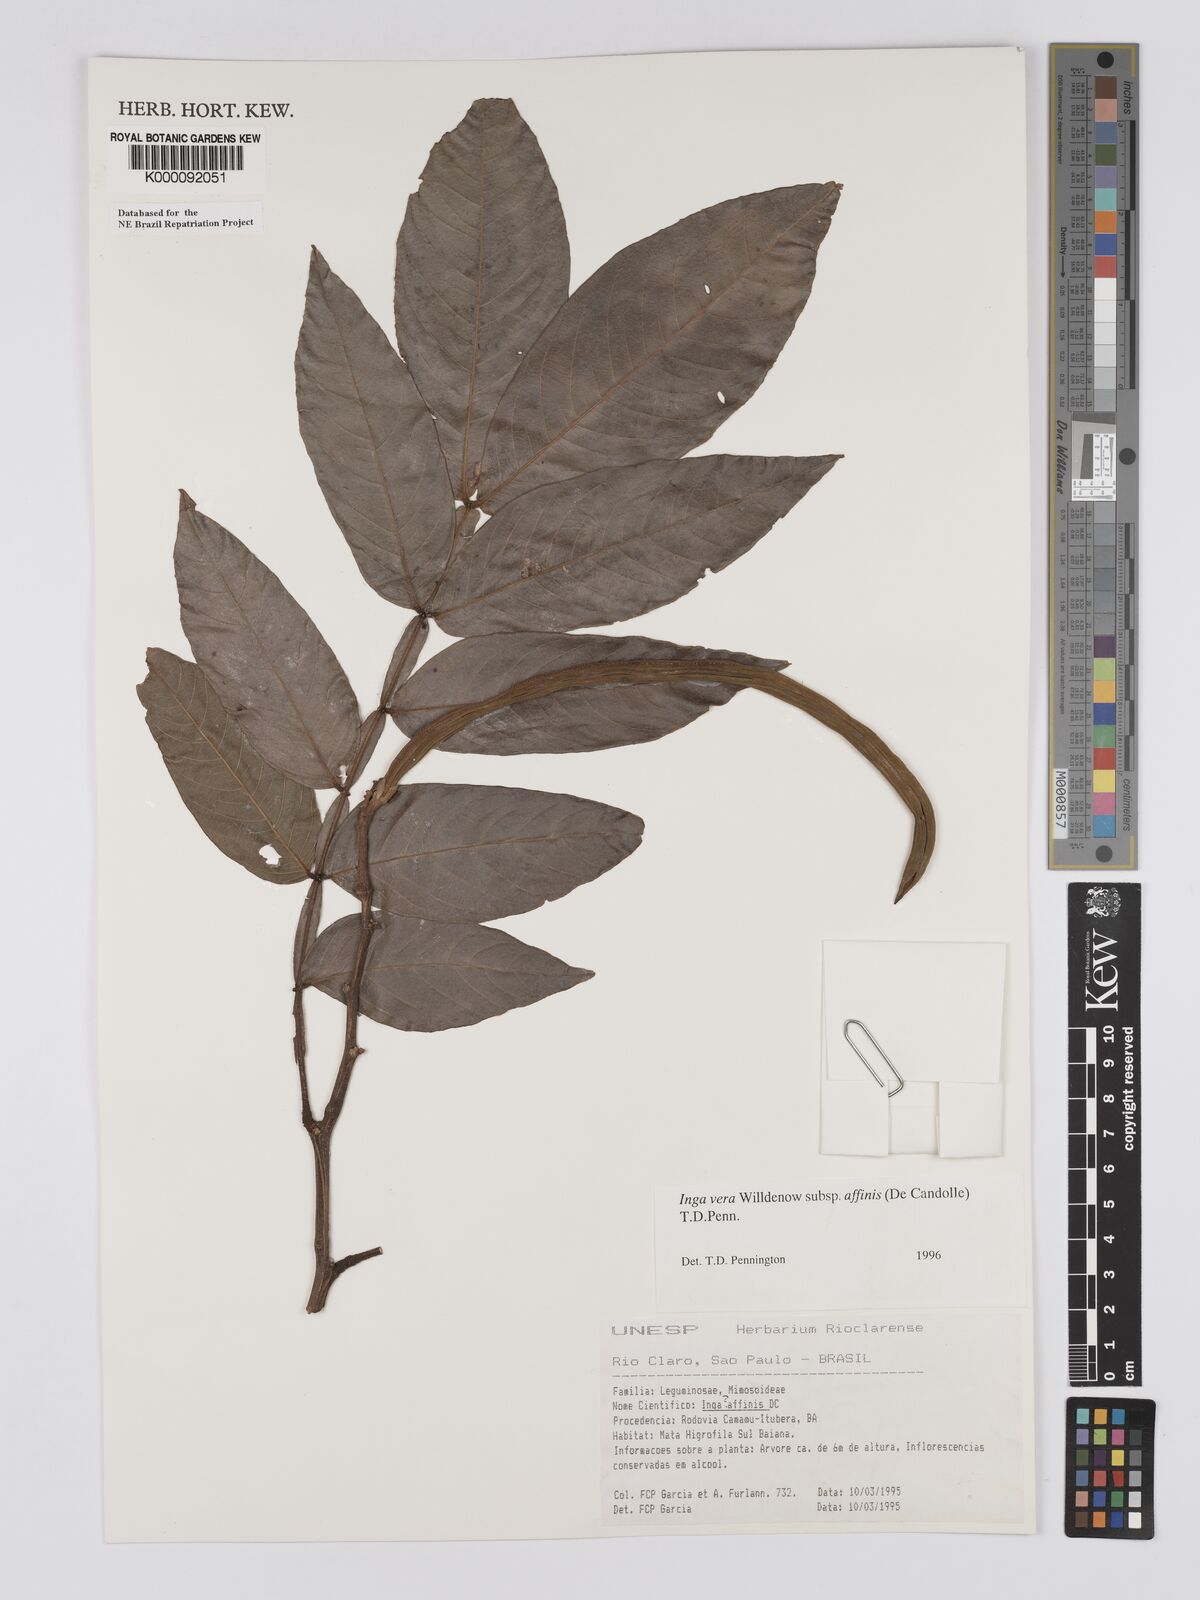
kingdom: Plantae
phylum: Tracheophyta
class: Magnoliopsida
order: Fabales
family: Fabaceae
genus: Inga
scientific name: Inga affinis
